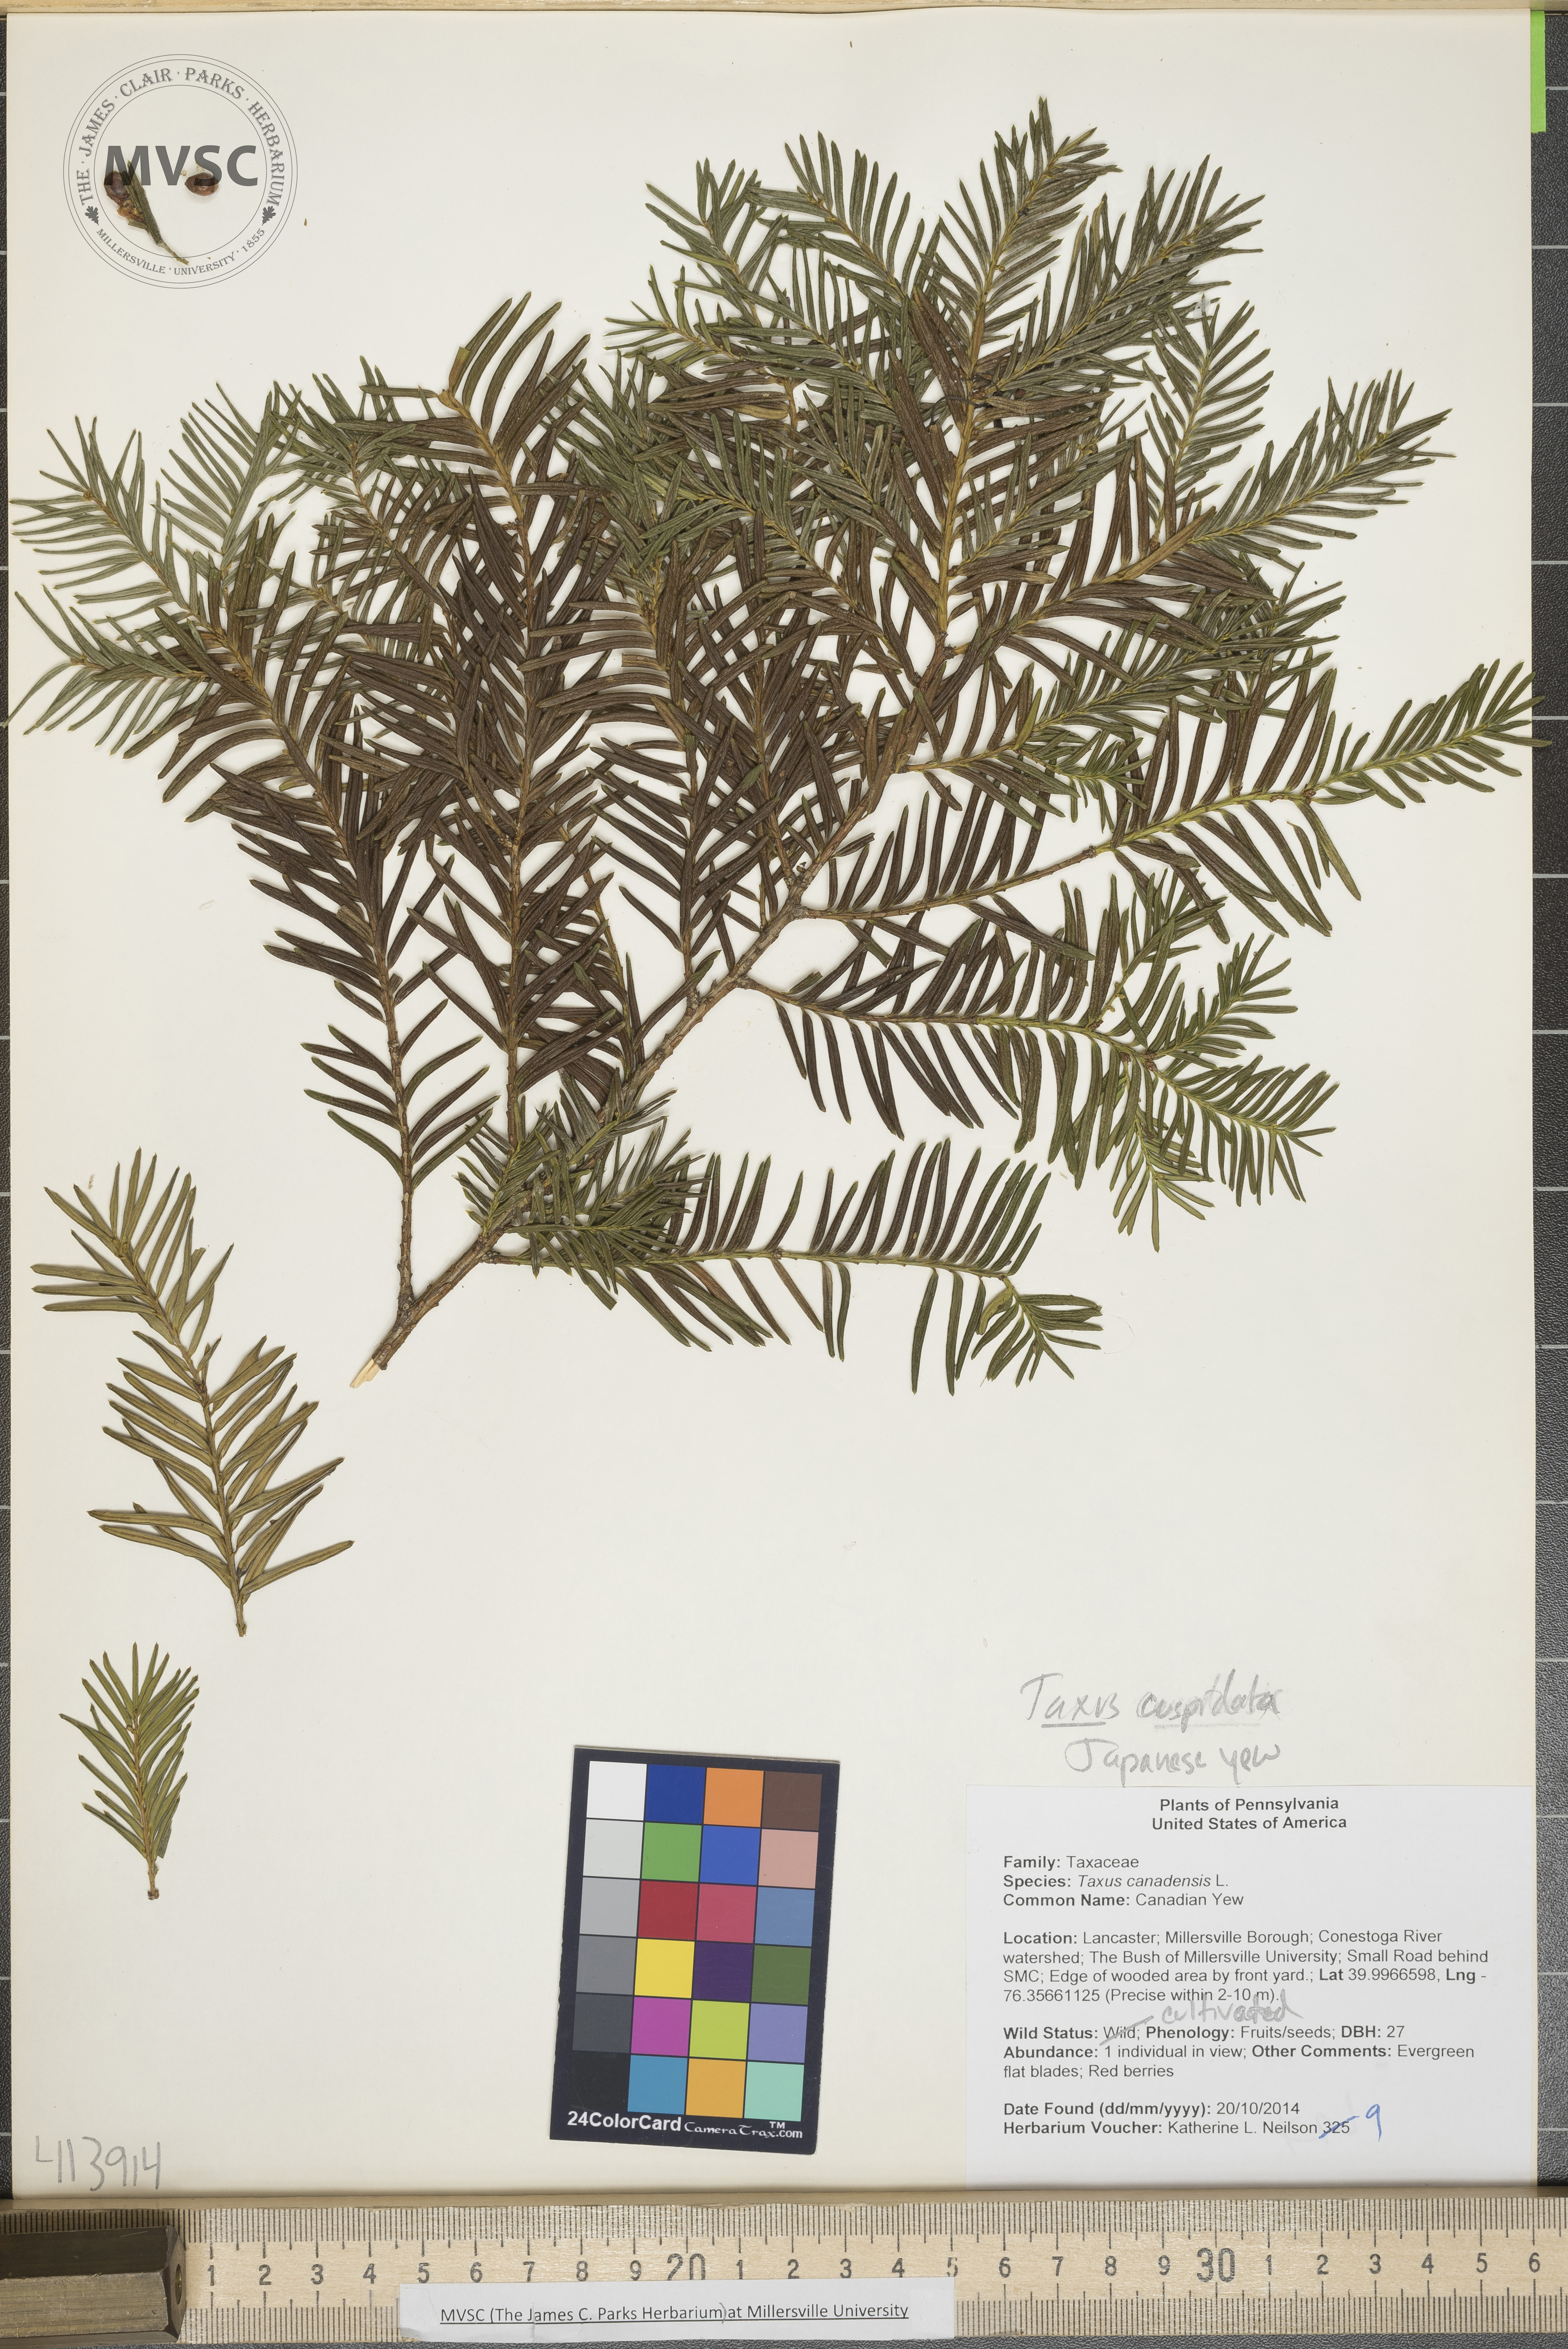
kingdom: Plantae
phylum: Tracheophyta
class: Pinopsida
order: Pinales
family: Taxaceae
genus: Taxus
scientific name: Taxus cuspidata
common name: Japanese Yew
